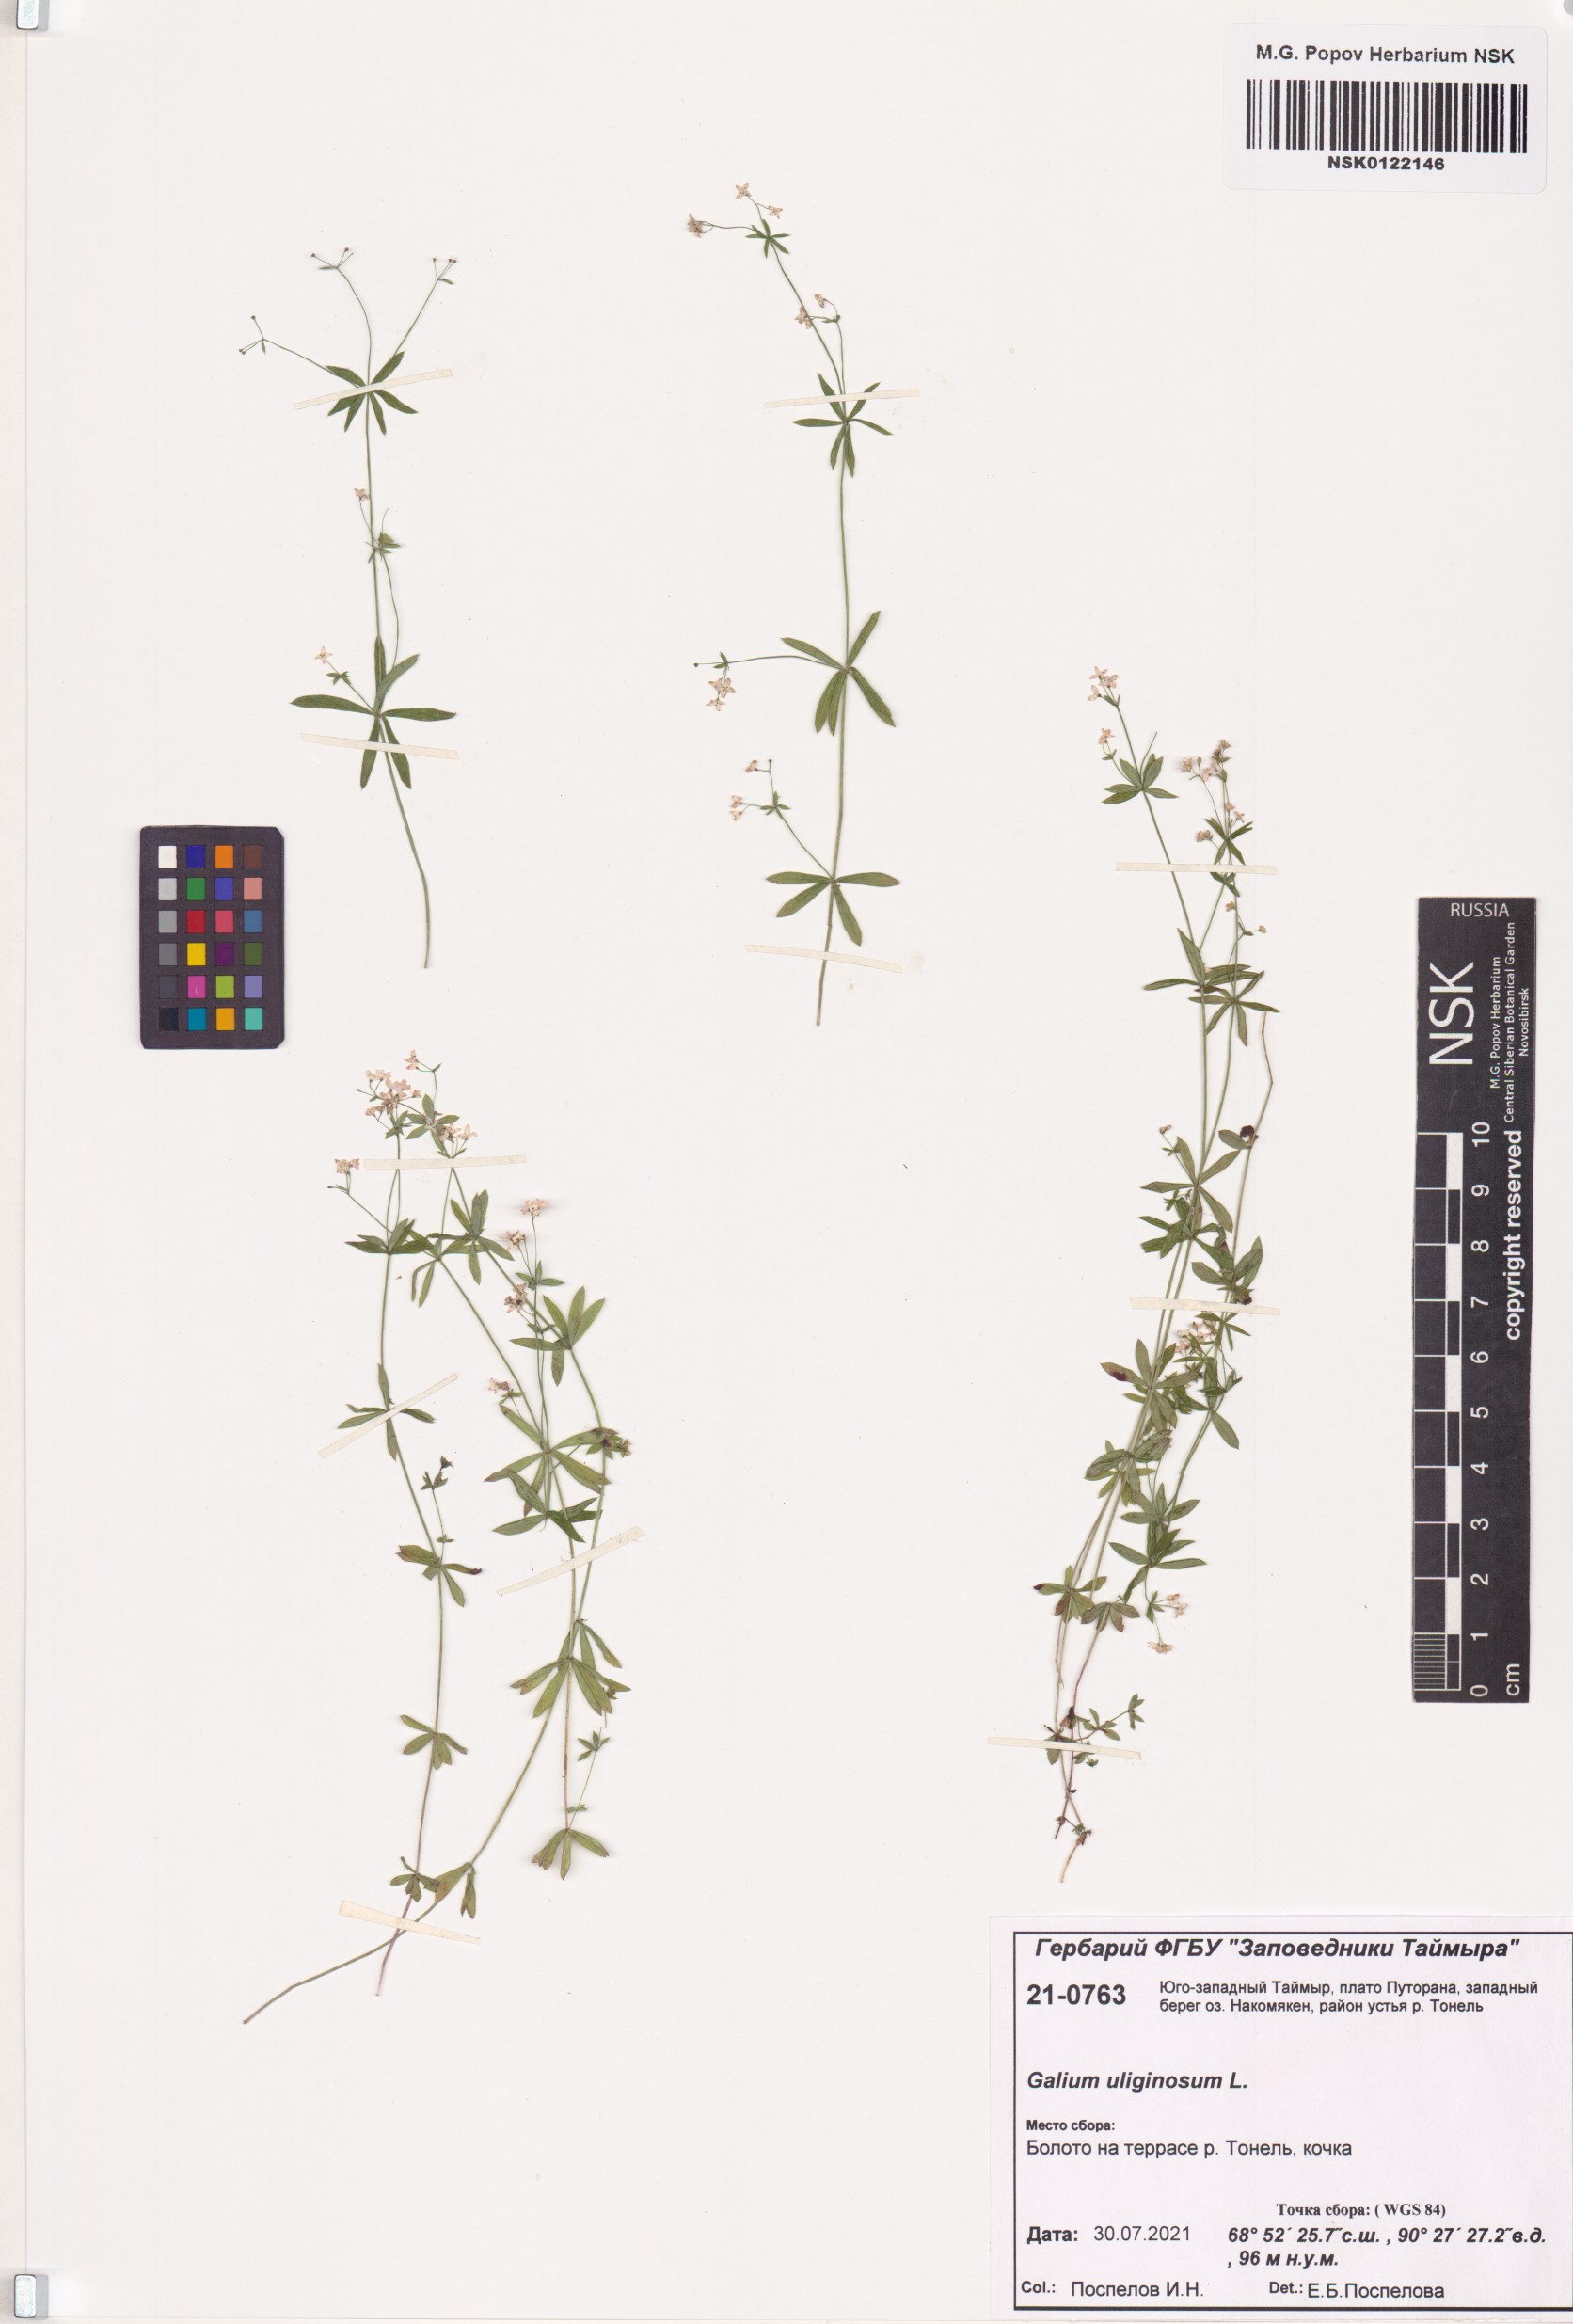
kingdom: Plantae
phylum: Tracheophyta
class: Magnoliopsida
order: Gentianales
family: Rubiaceae
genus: Galium
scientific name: Galium uliginosum
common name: Fen bedstraw
